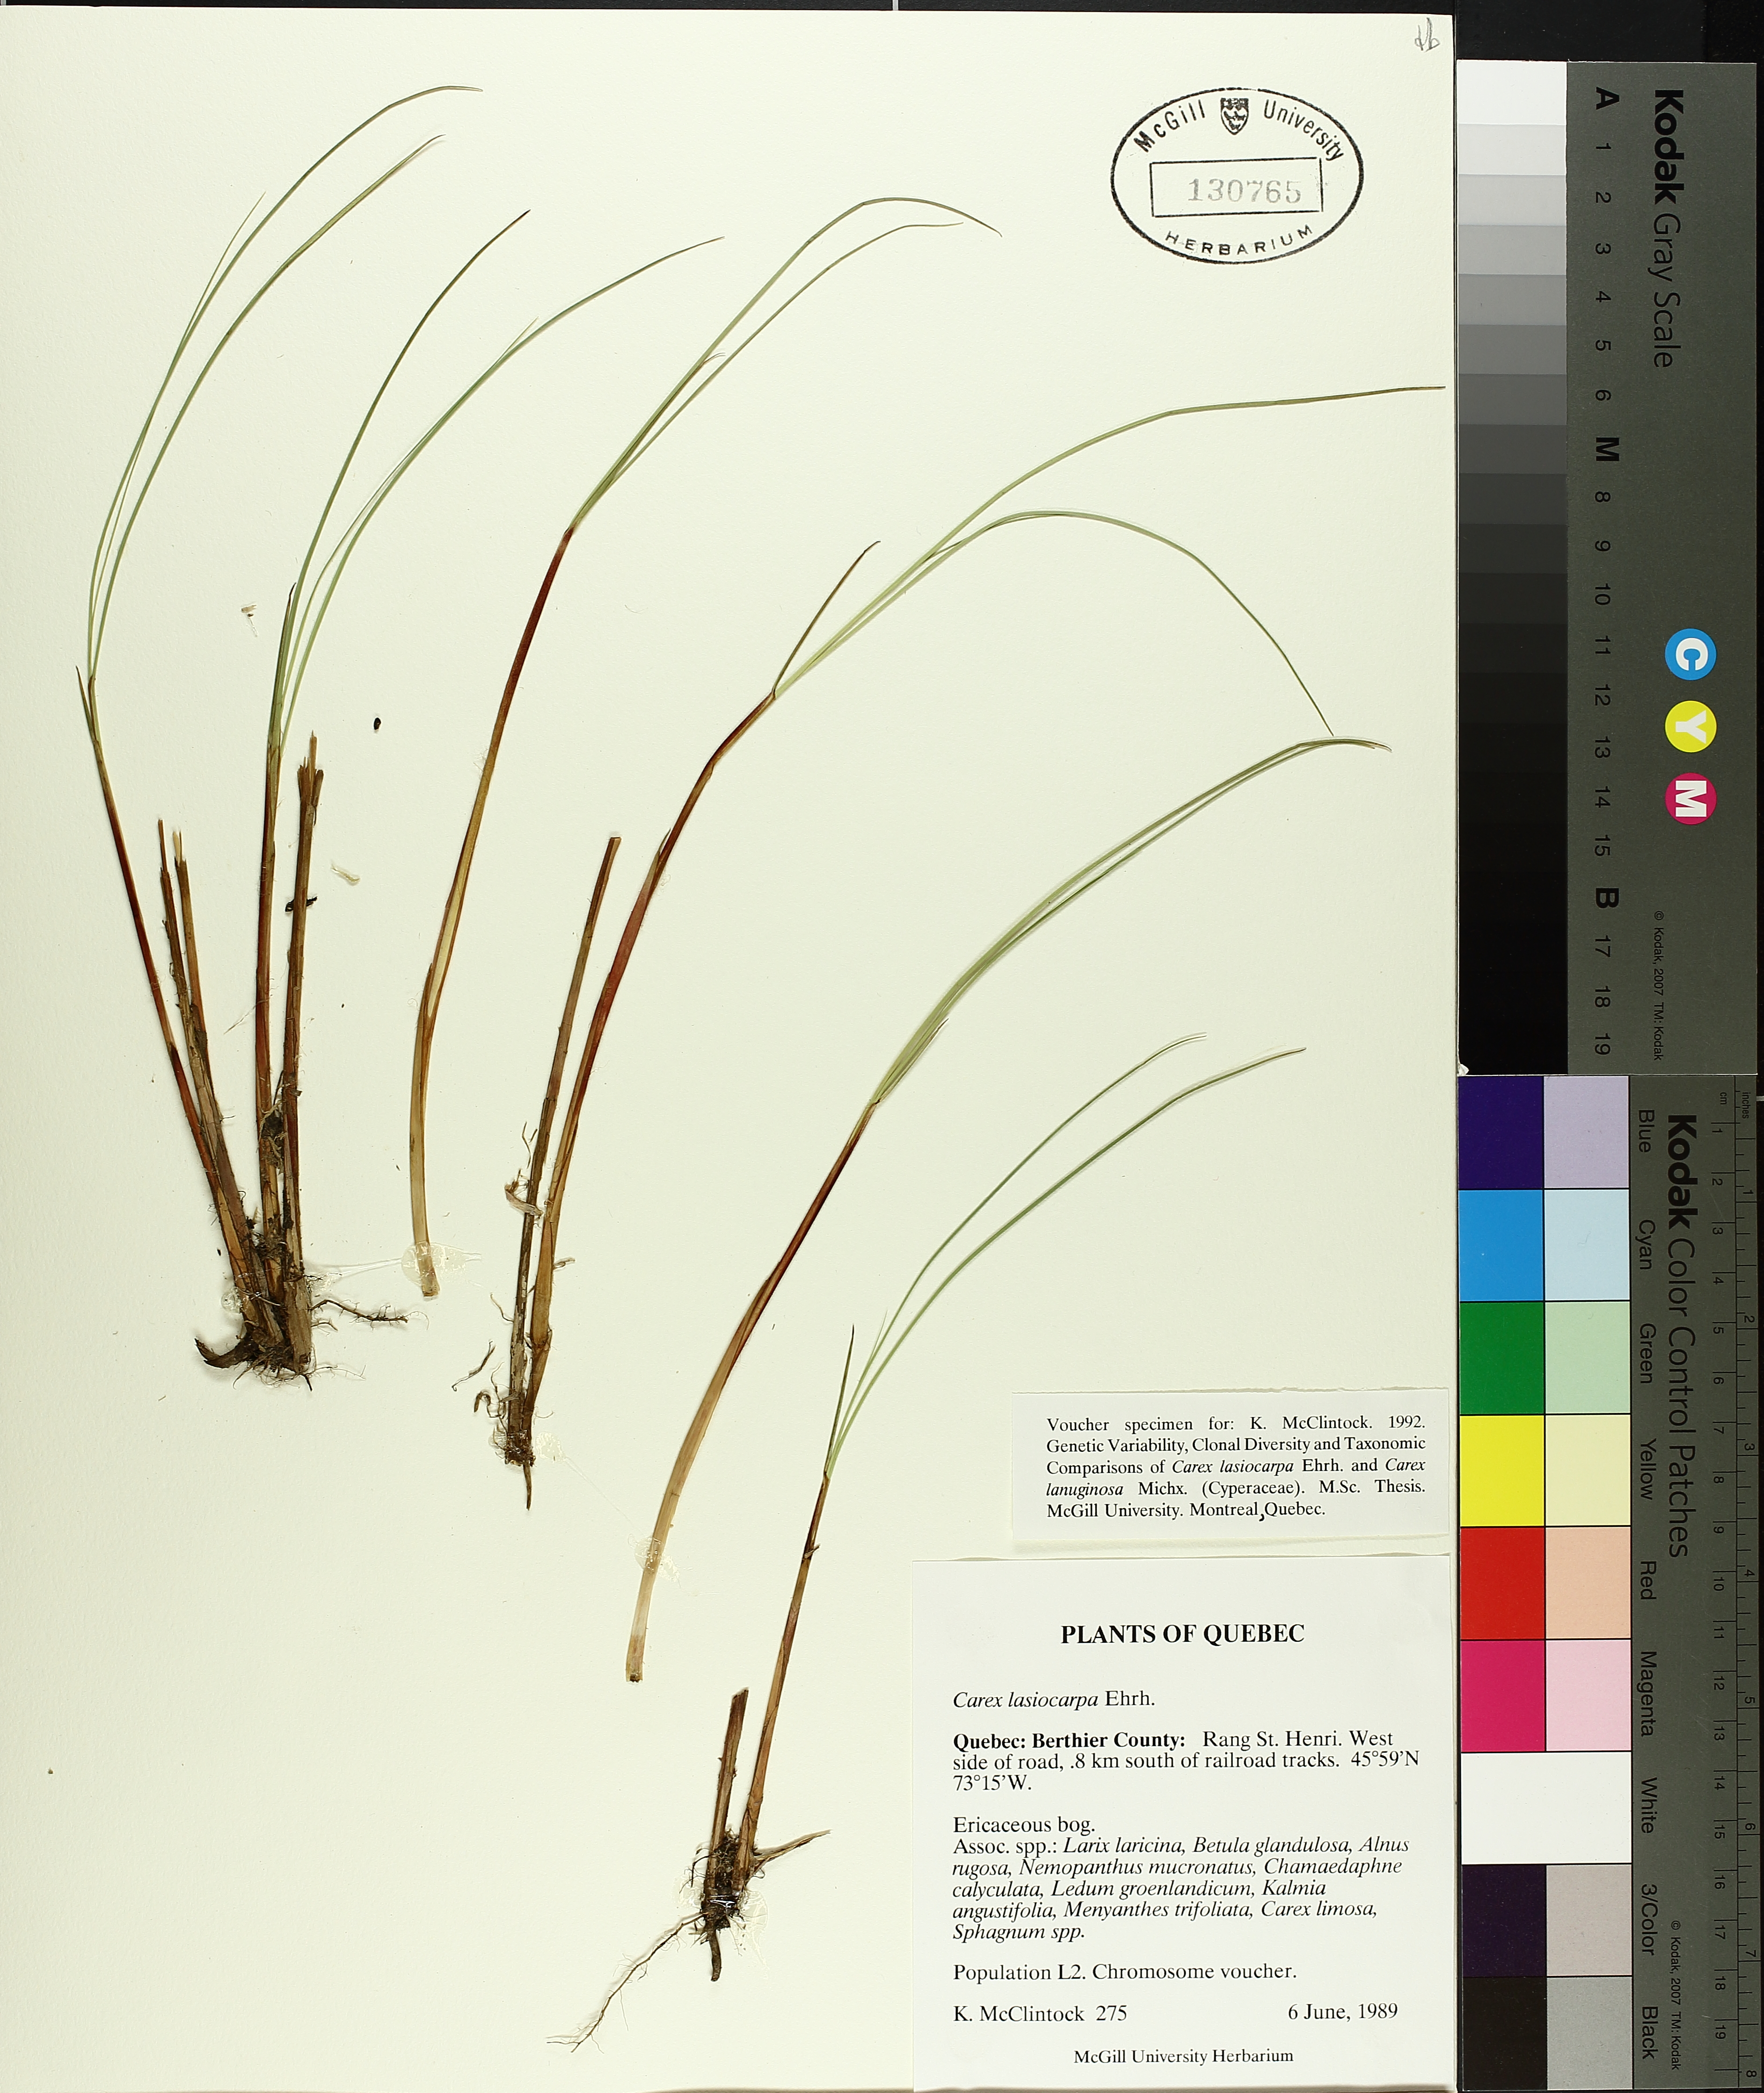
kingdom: Plantae
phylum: Tracheophyta
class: Liliopsida
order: Poales
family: Cyperaceae
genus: Carex
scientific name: Carex lasiocarpa
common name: Slender sedge
